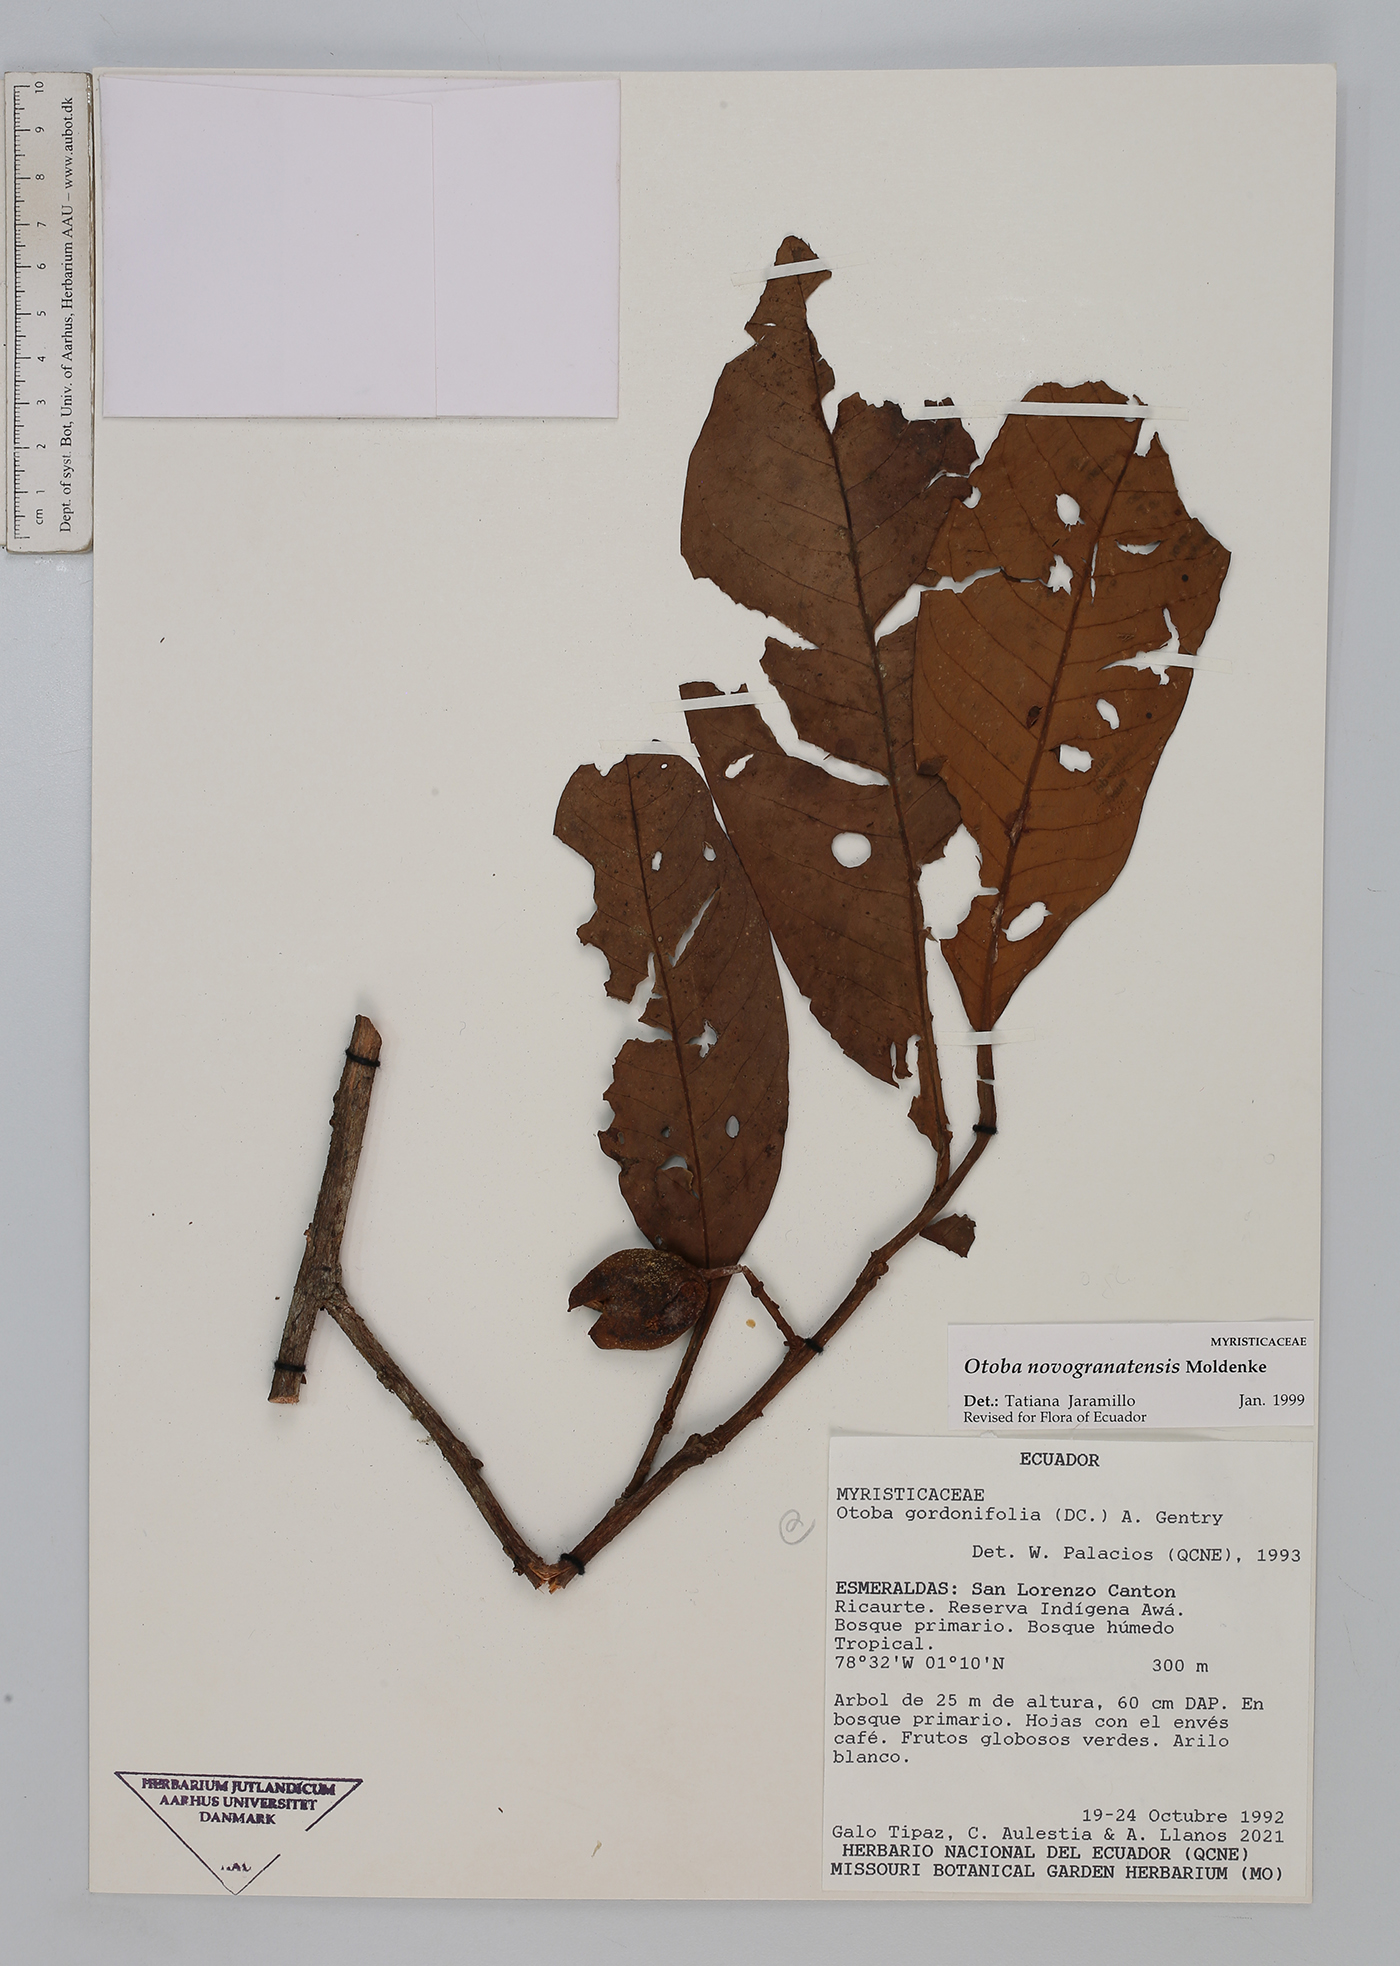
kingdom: Plantae
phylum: Tracheophyta
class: Magnoliopsida
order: Magnoliales
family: Myristicaceae
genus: Otoba
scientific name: Otoba novogranatensis
